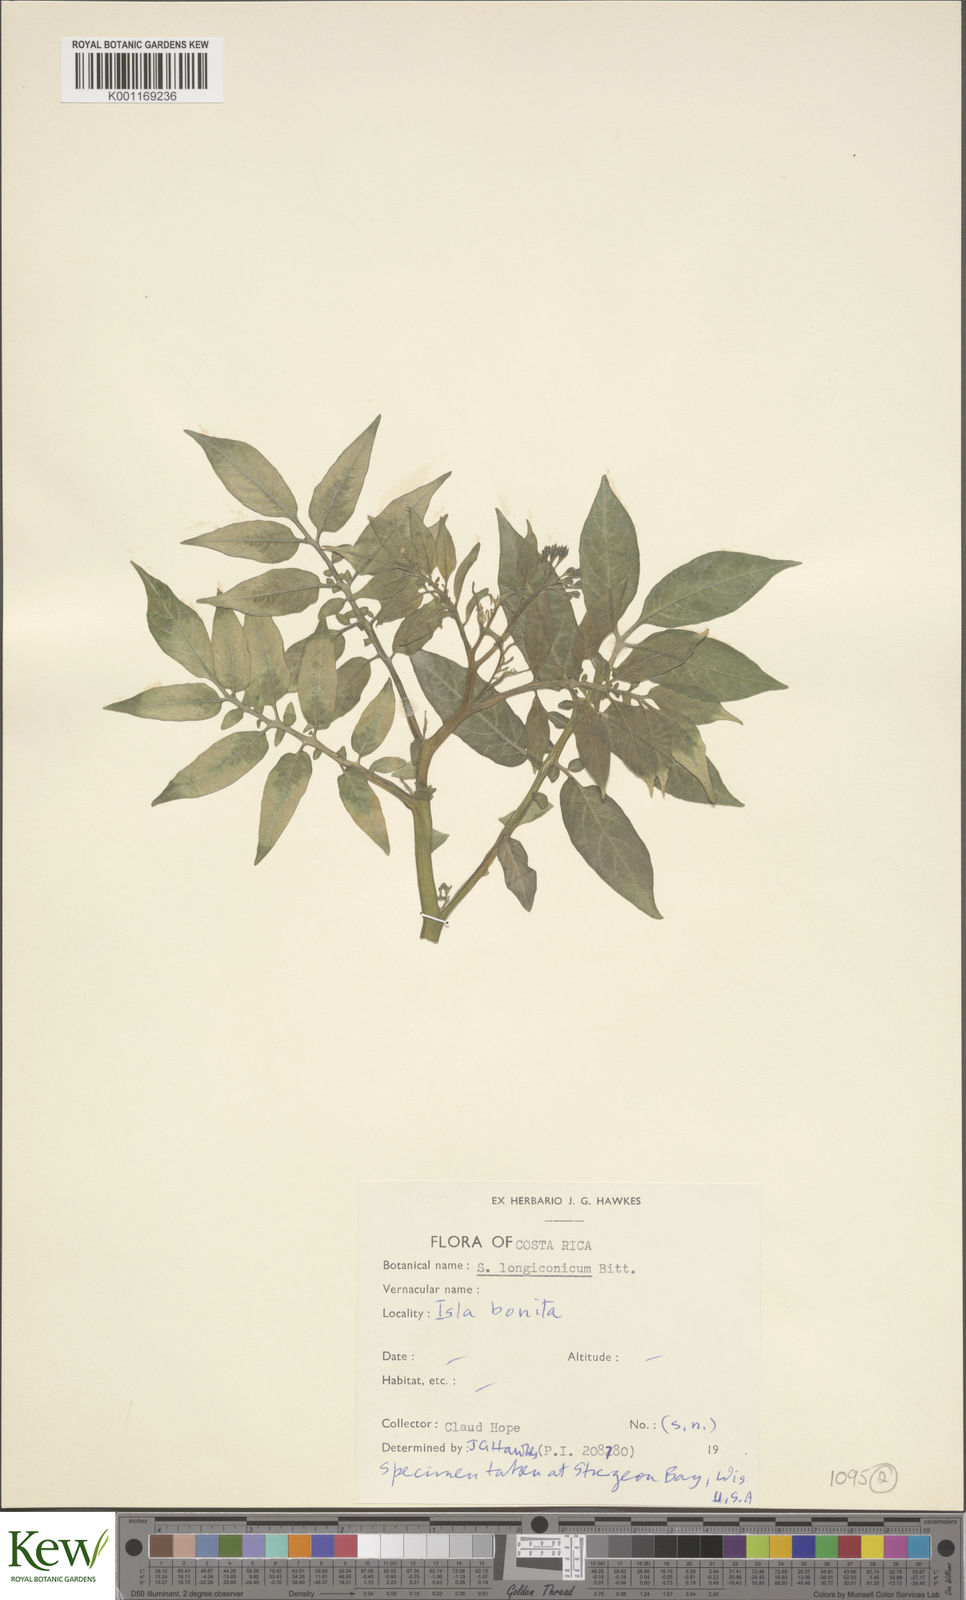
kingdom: Plantae
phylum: Tracheophyta
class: Magnoliopsida
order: Solanales
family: Solanaceae
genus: Solanum
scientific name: Solanum longiconicum
